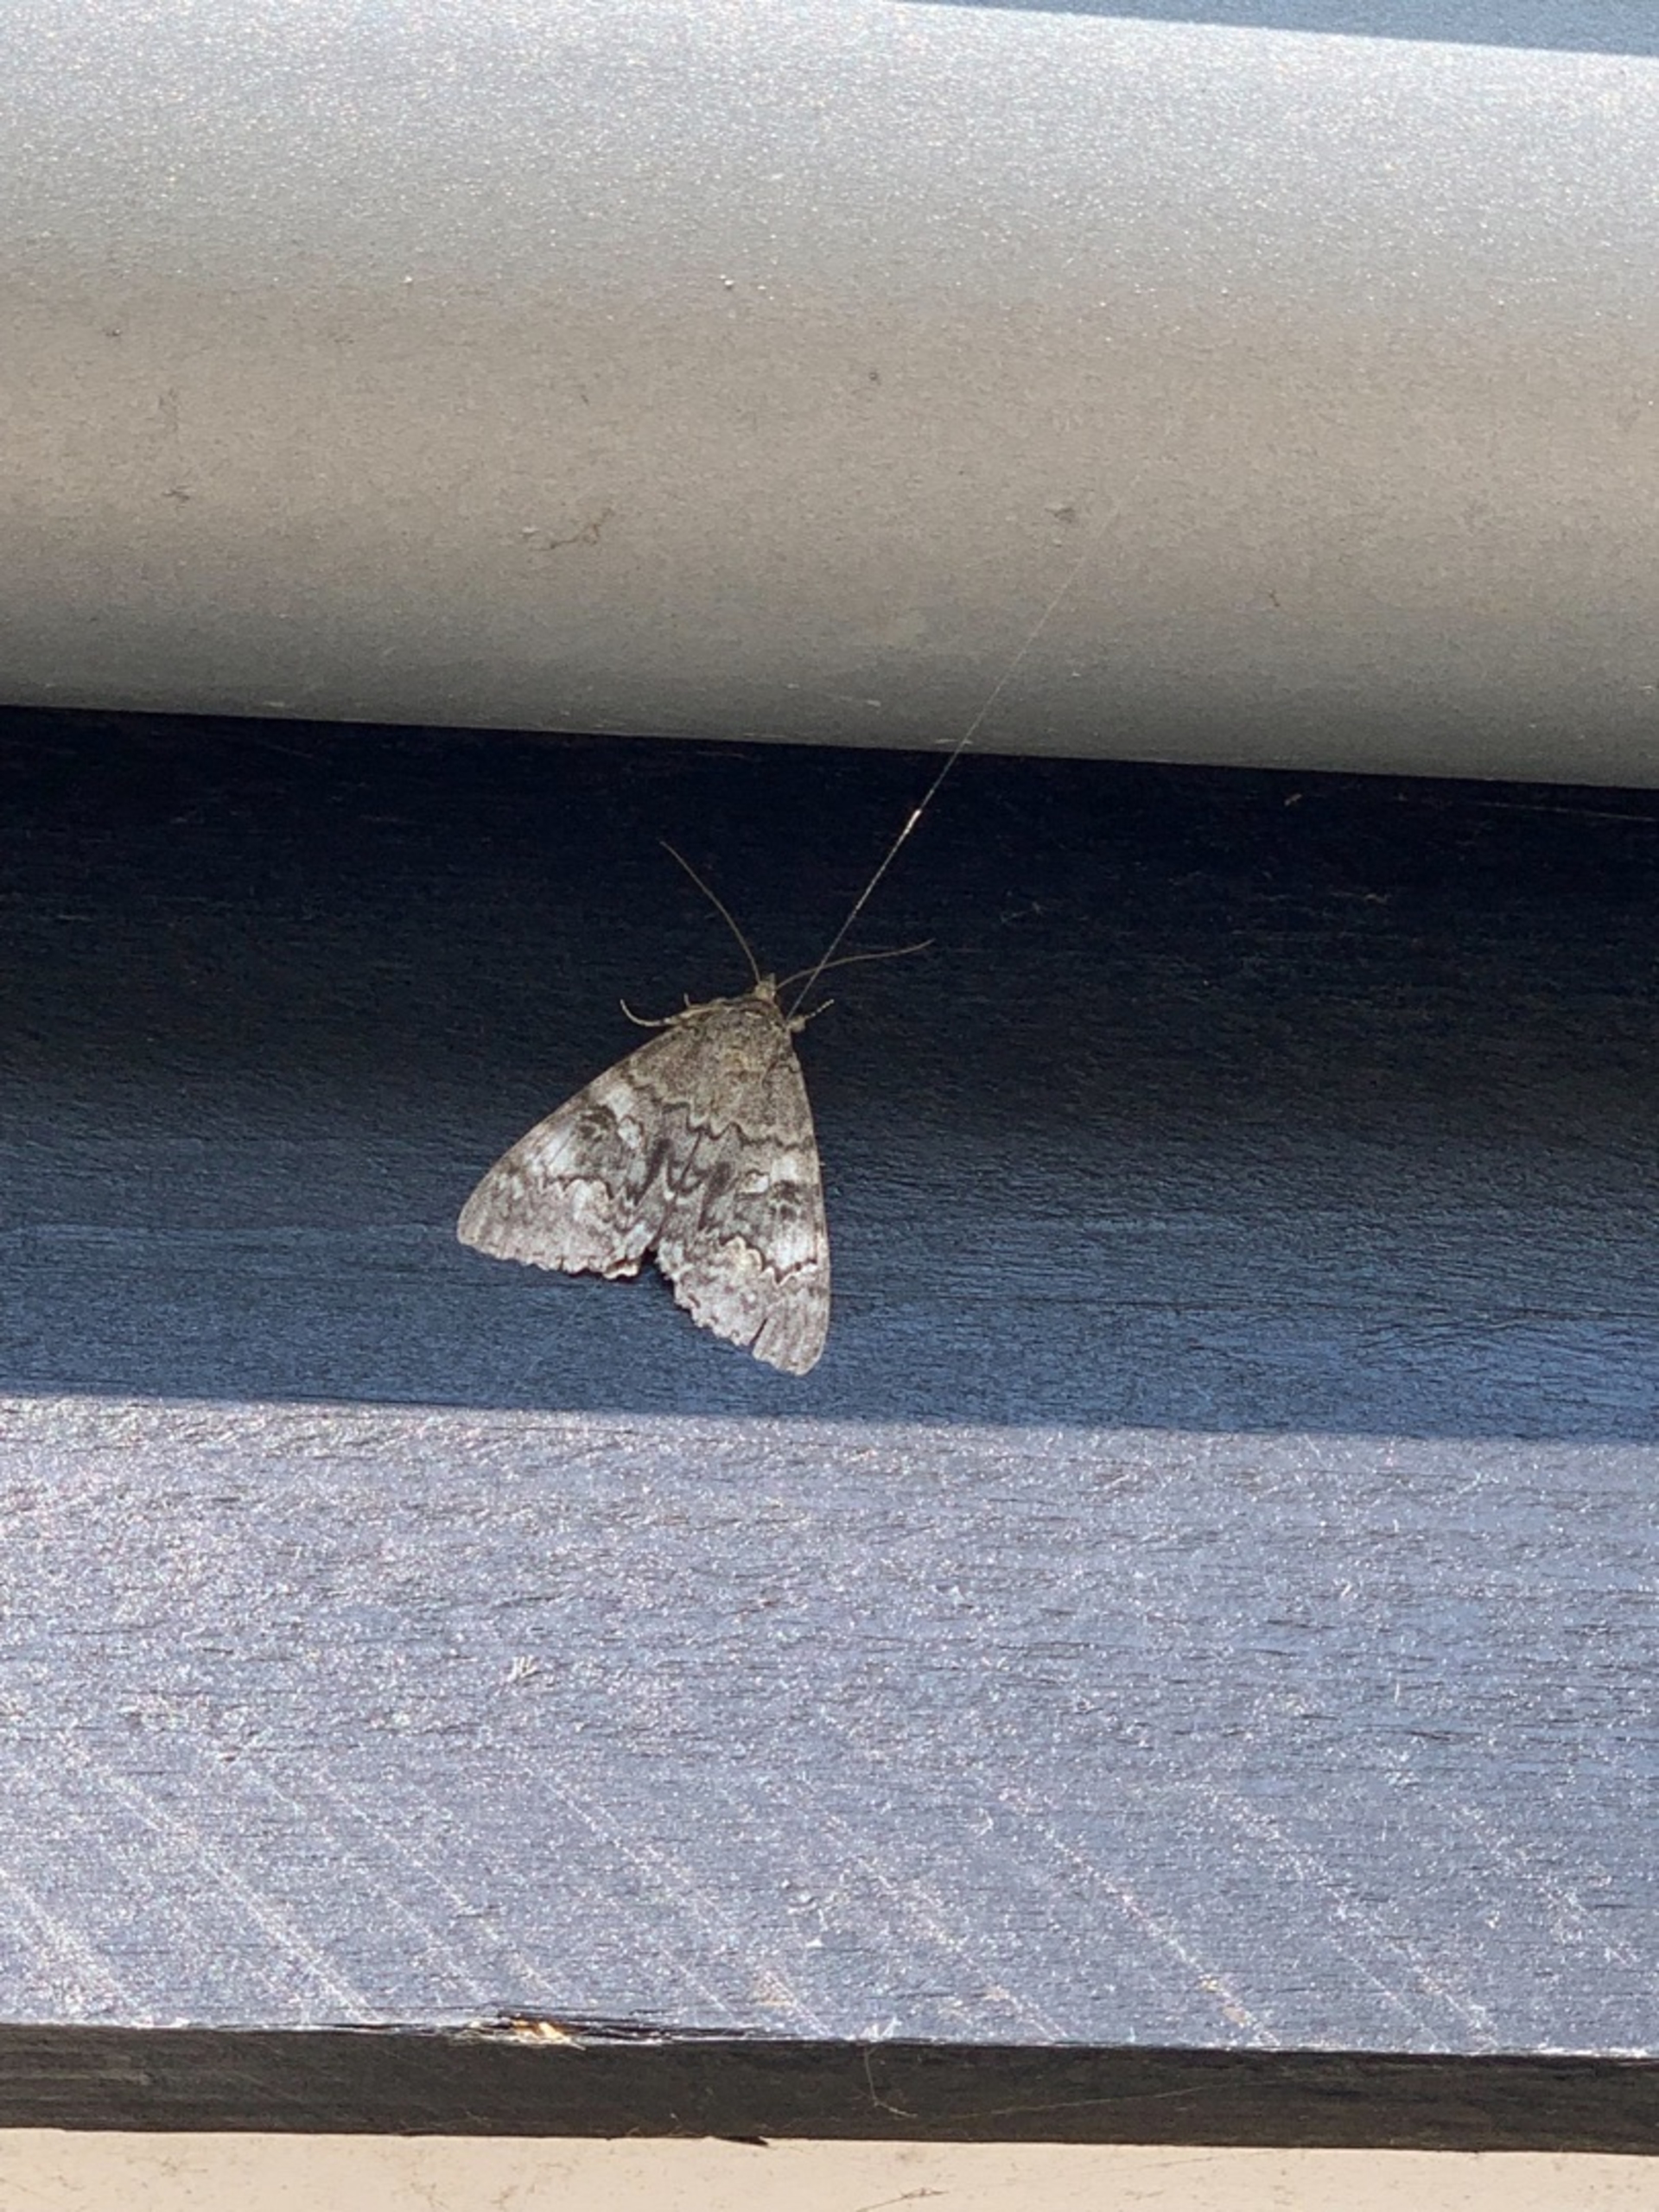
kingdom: Animalia
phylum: Arthropoda
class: Insecta
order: Lepidoptera
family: Erebidae
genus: Catocala
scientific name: Catocala nupta
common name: Rødt ordensbånd
